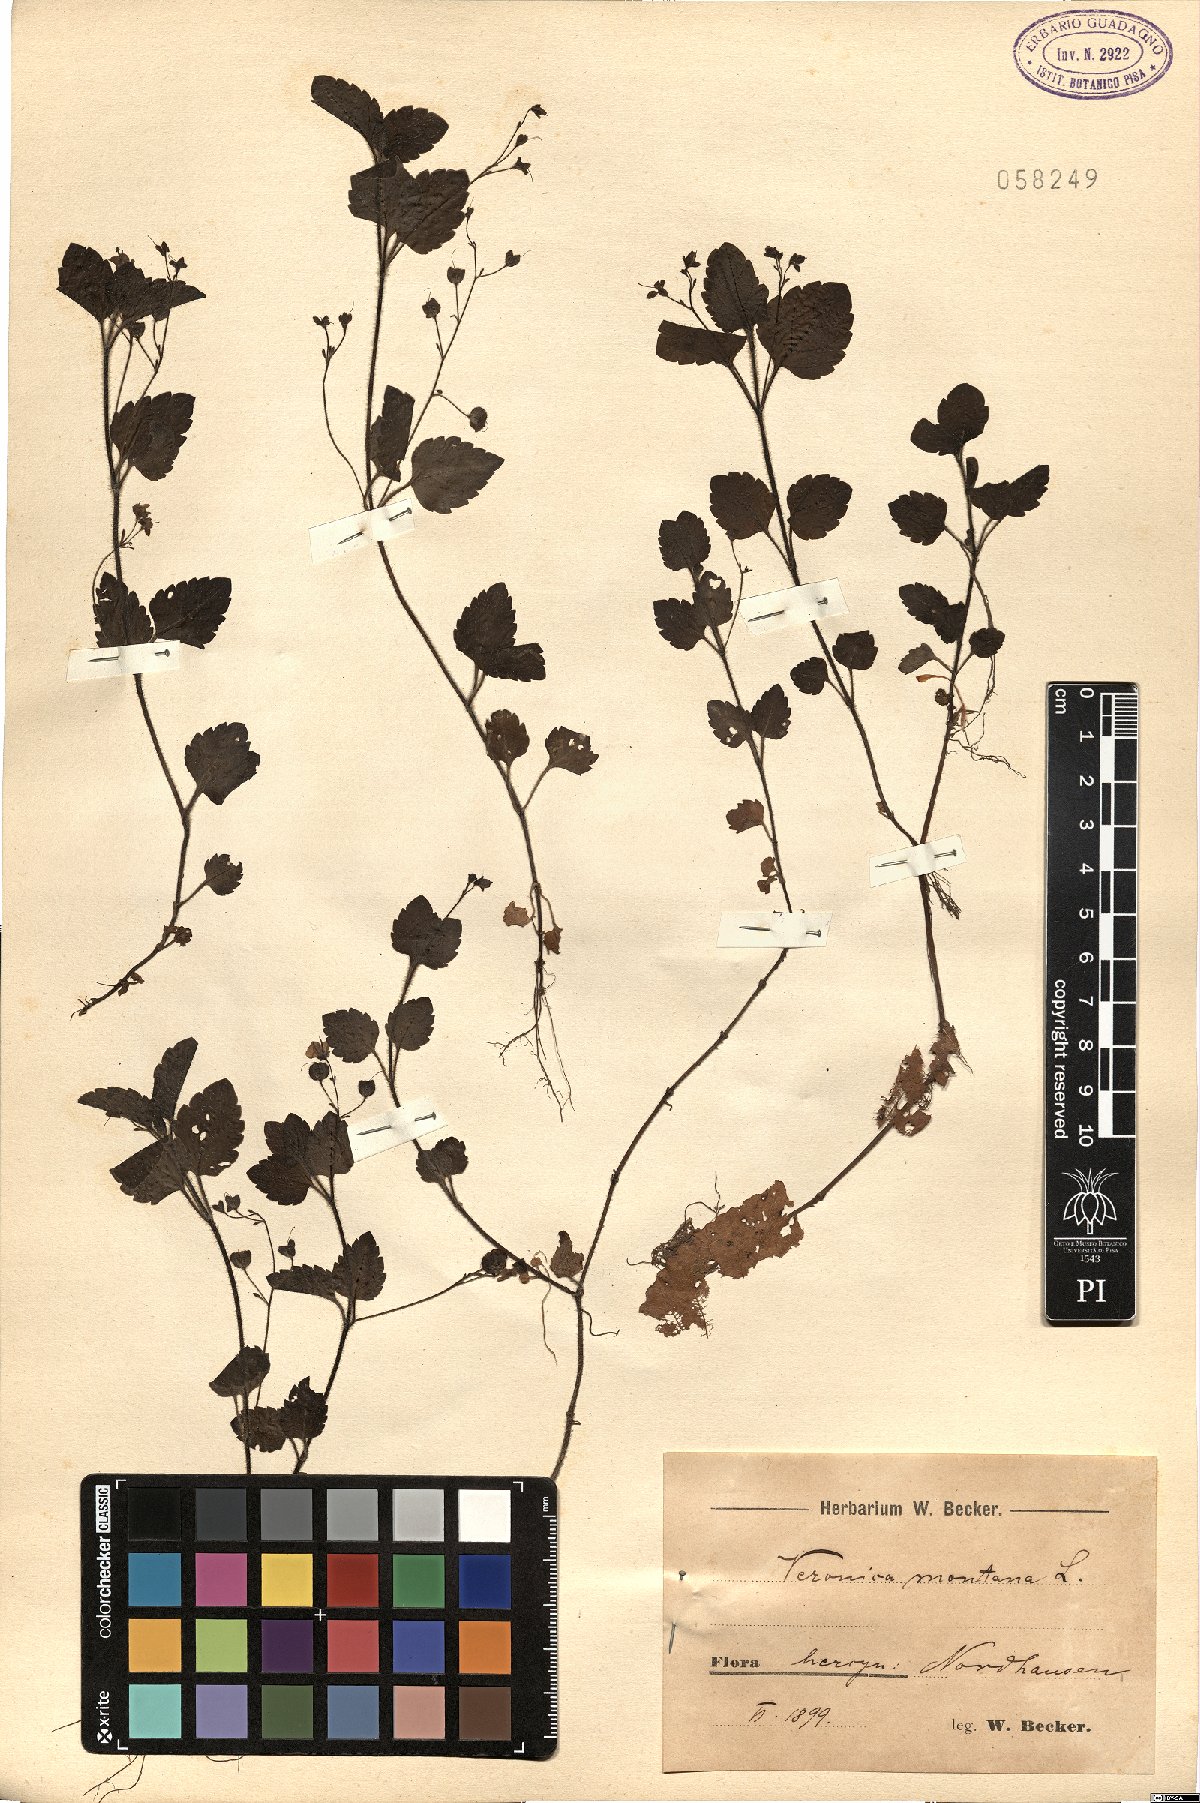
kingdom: Plantae
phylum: Tracheophyta
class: Magnoliopsida
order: Lamiales
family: Plantaginaceae
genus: Veronica
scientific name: Veronica montana
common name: Wood speedwell
